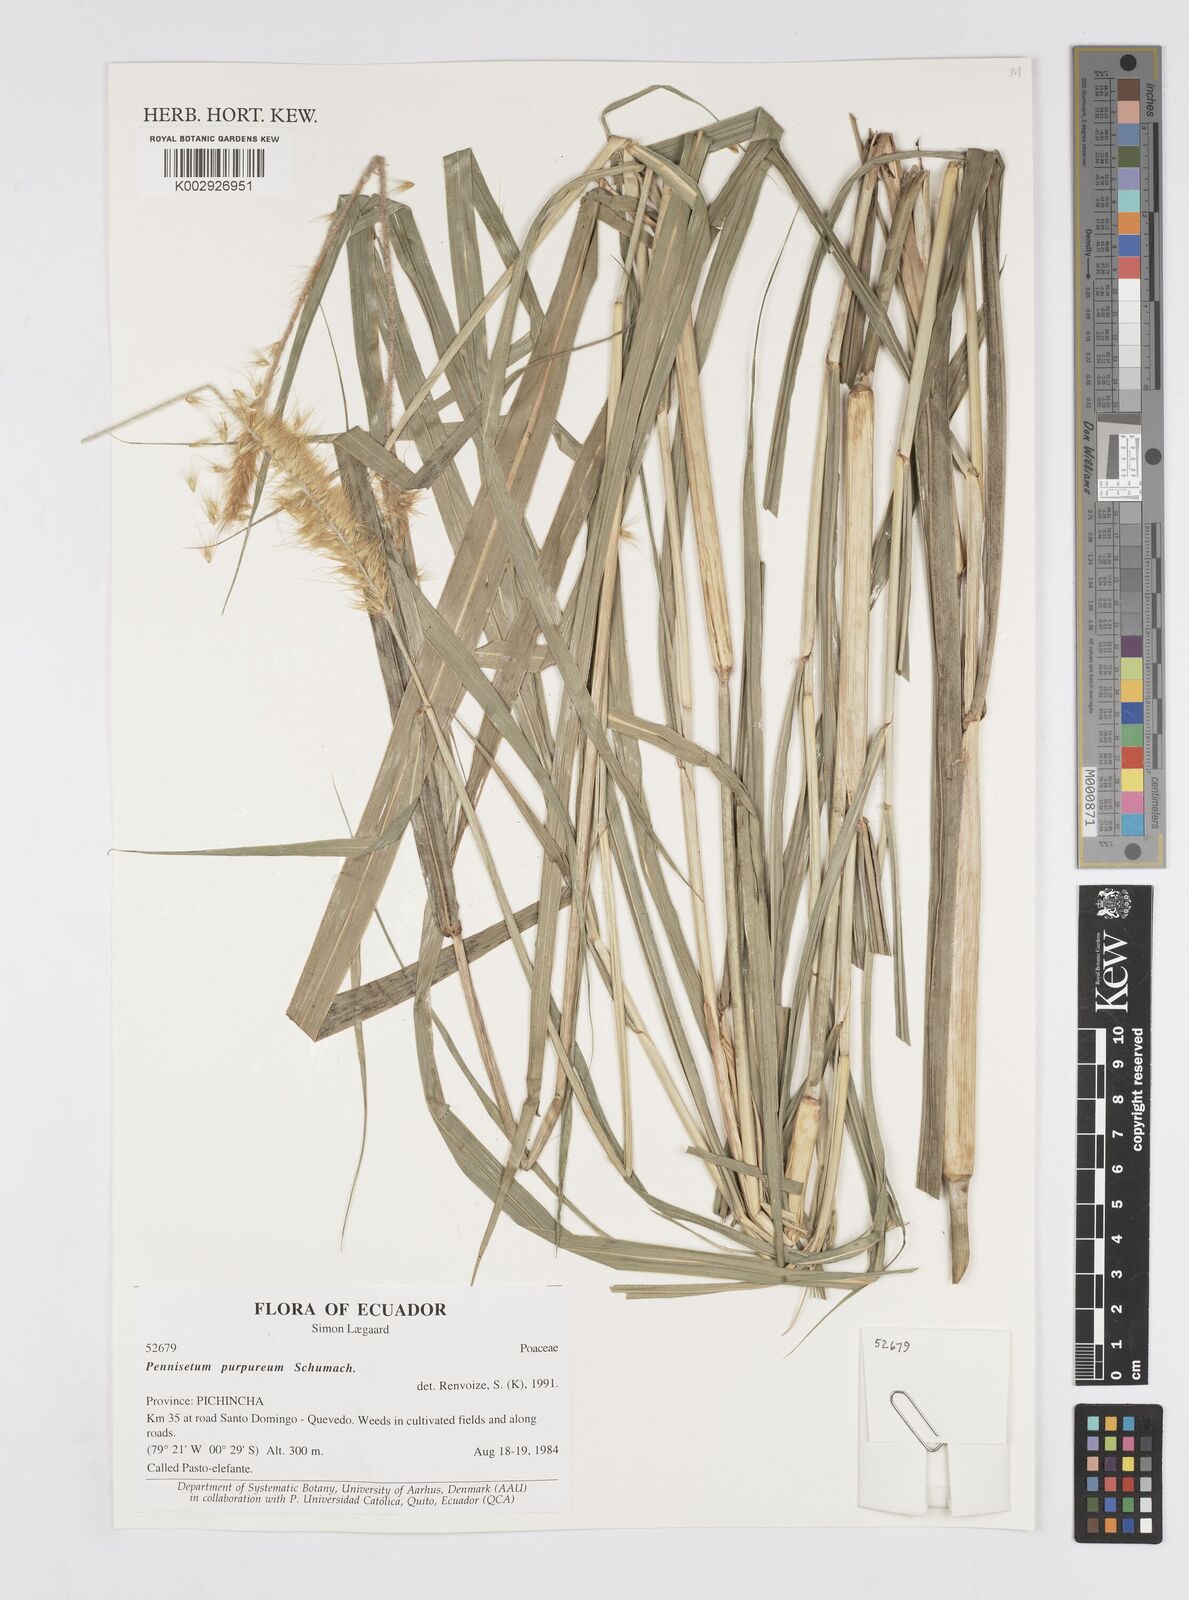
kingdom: Plantae
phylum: Tracheophyta
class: Liliopsida
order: Poales
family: Poaceae
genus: Cenchrus
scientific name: Cenchrus Pennisetum spec
